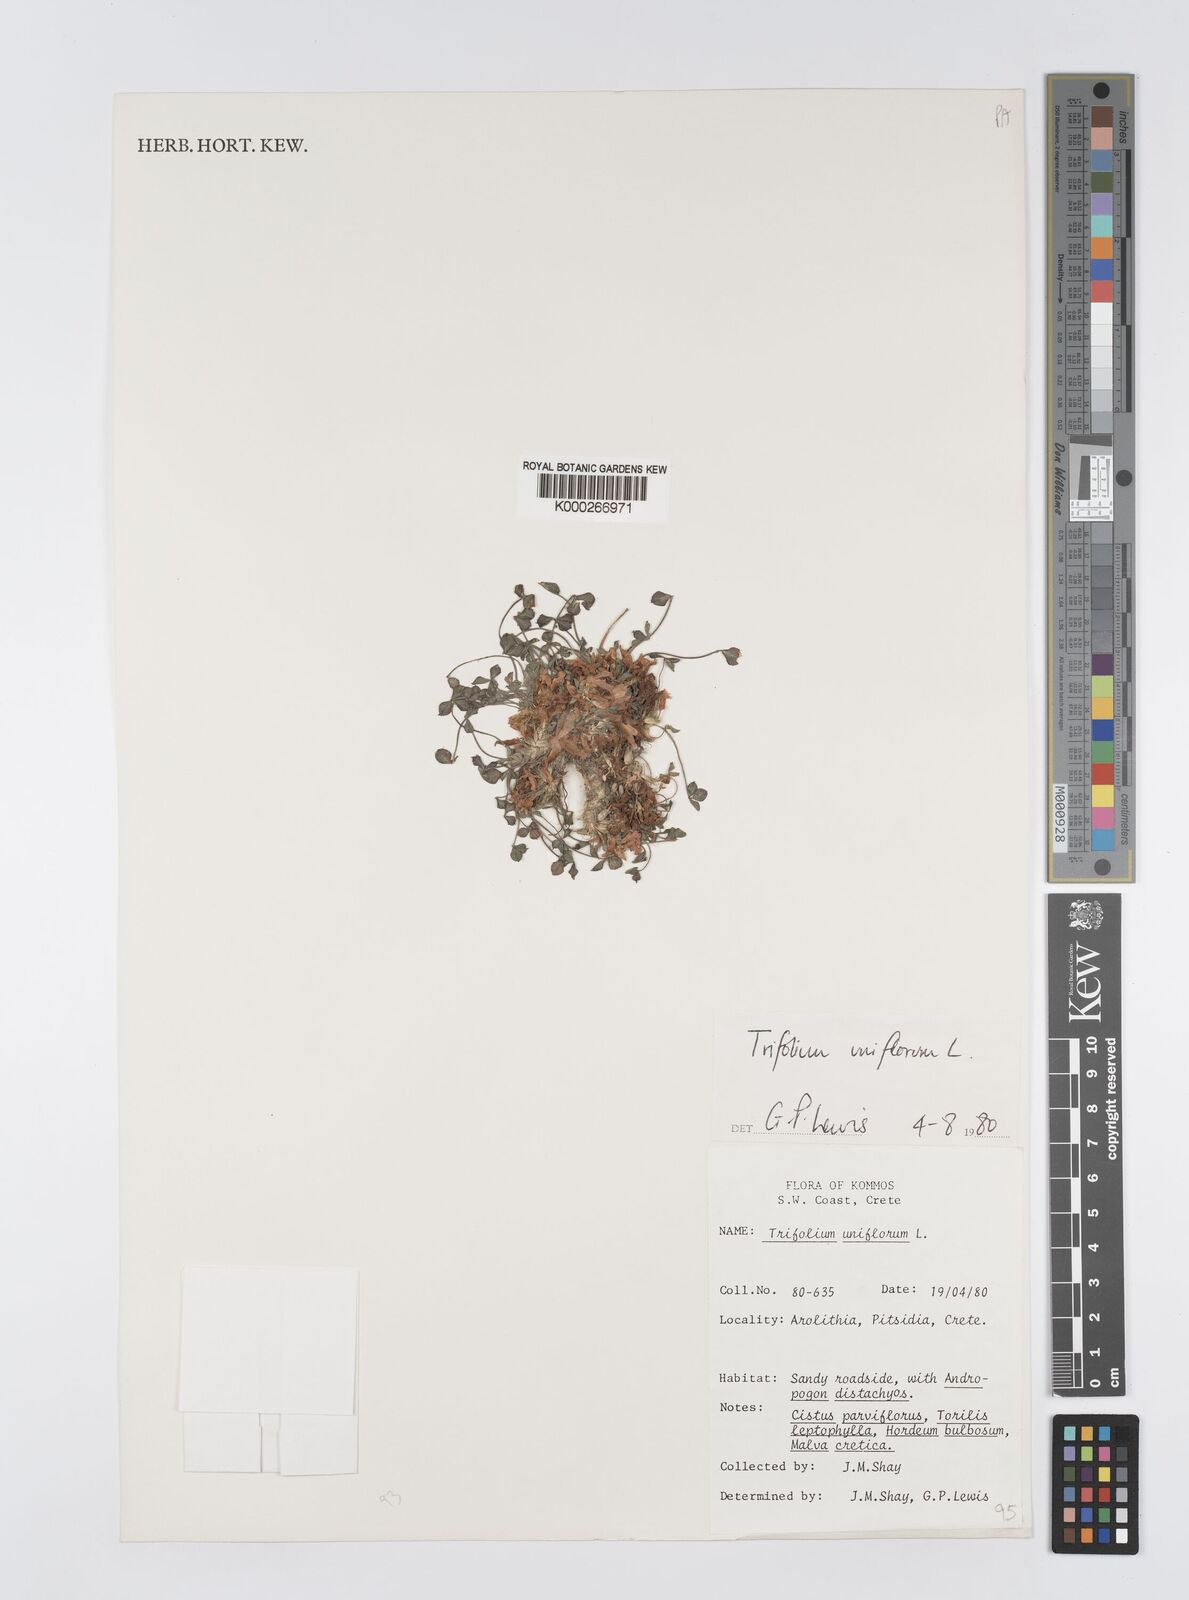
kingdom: Plantae
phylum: Tracheophyta
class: Magnoliopsida
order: Fabales
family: Fabaceae
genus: Trifolium
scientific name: Trifolium uniflorum
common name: One-flower clover
